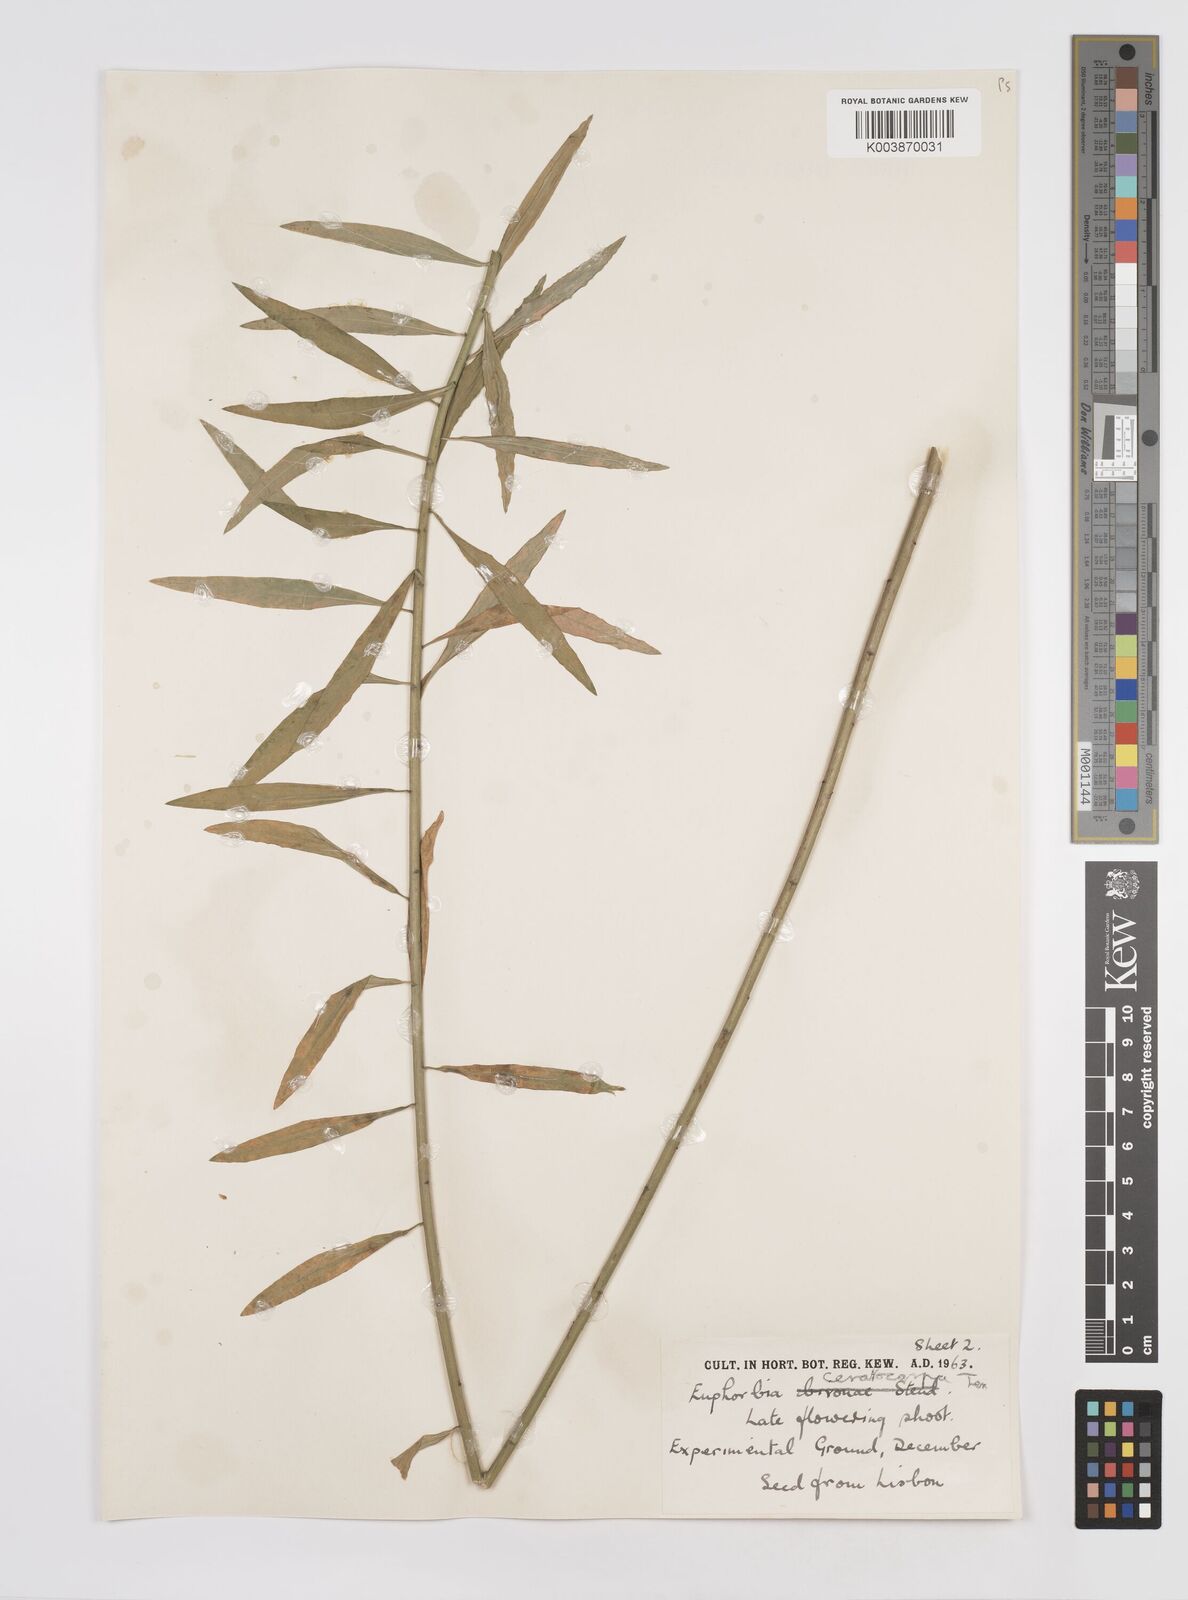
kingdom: Plantae
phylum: Tracheophyta
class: Magnoliopsida
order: Malpighiales
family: Euphorbiaceae
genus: Euphorbia
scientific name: Euphorbia ceratocarpa
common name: Horned spurge
